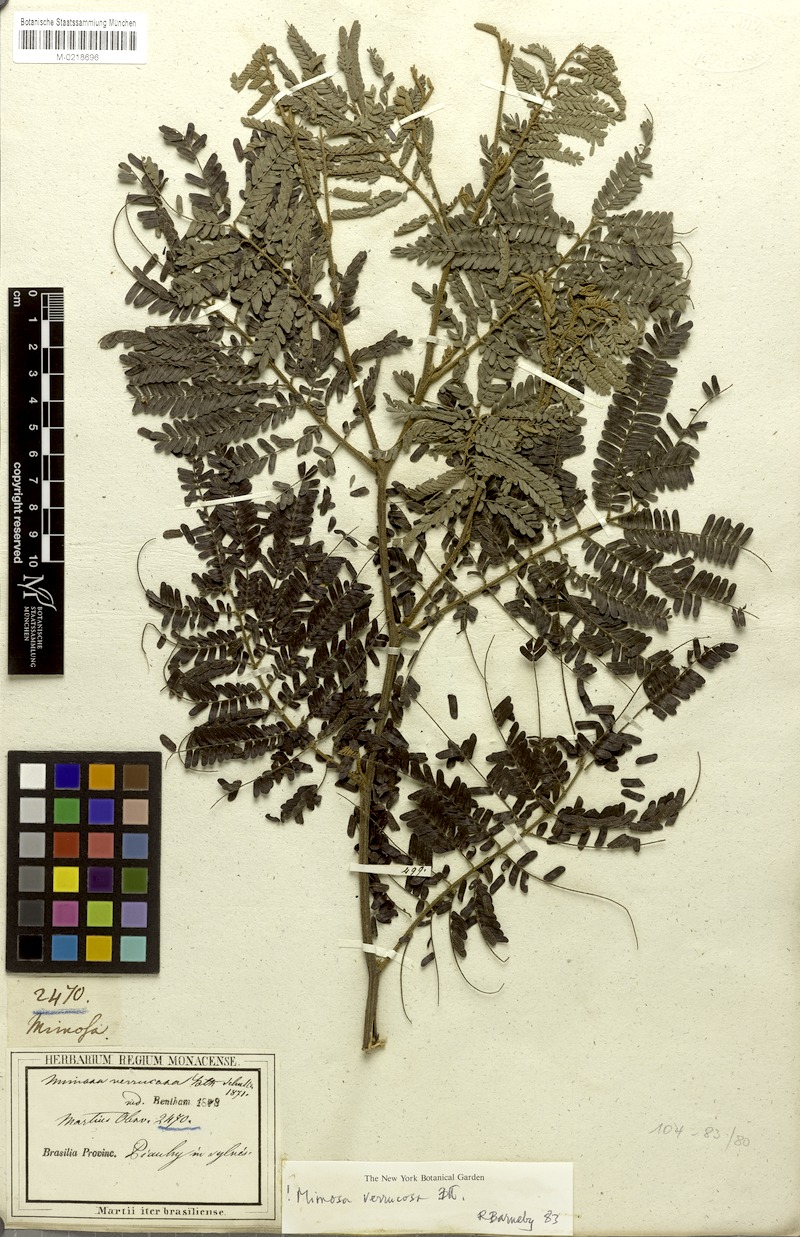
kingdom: Plantae
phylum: Tracheophyta
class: Magnoliopsida
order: Fabales
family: Fabaceae
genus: Mimosa
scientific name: Mimosa verrucosa
